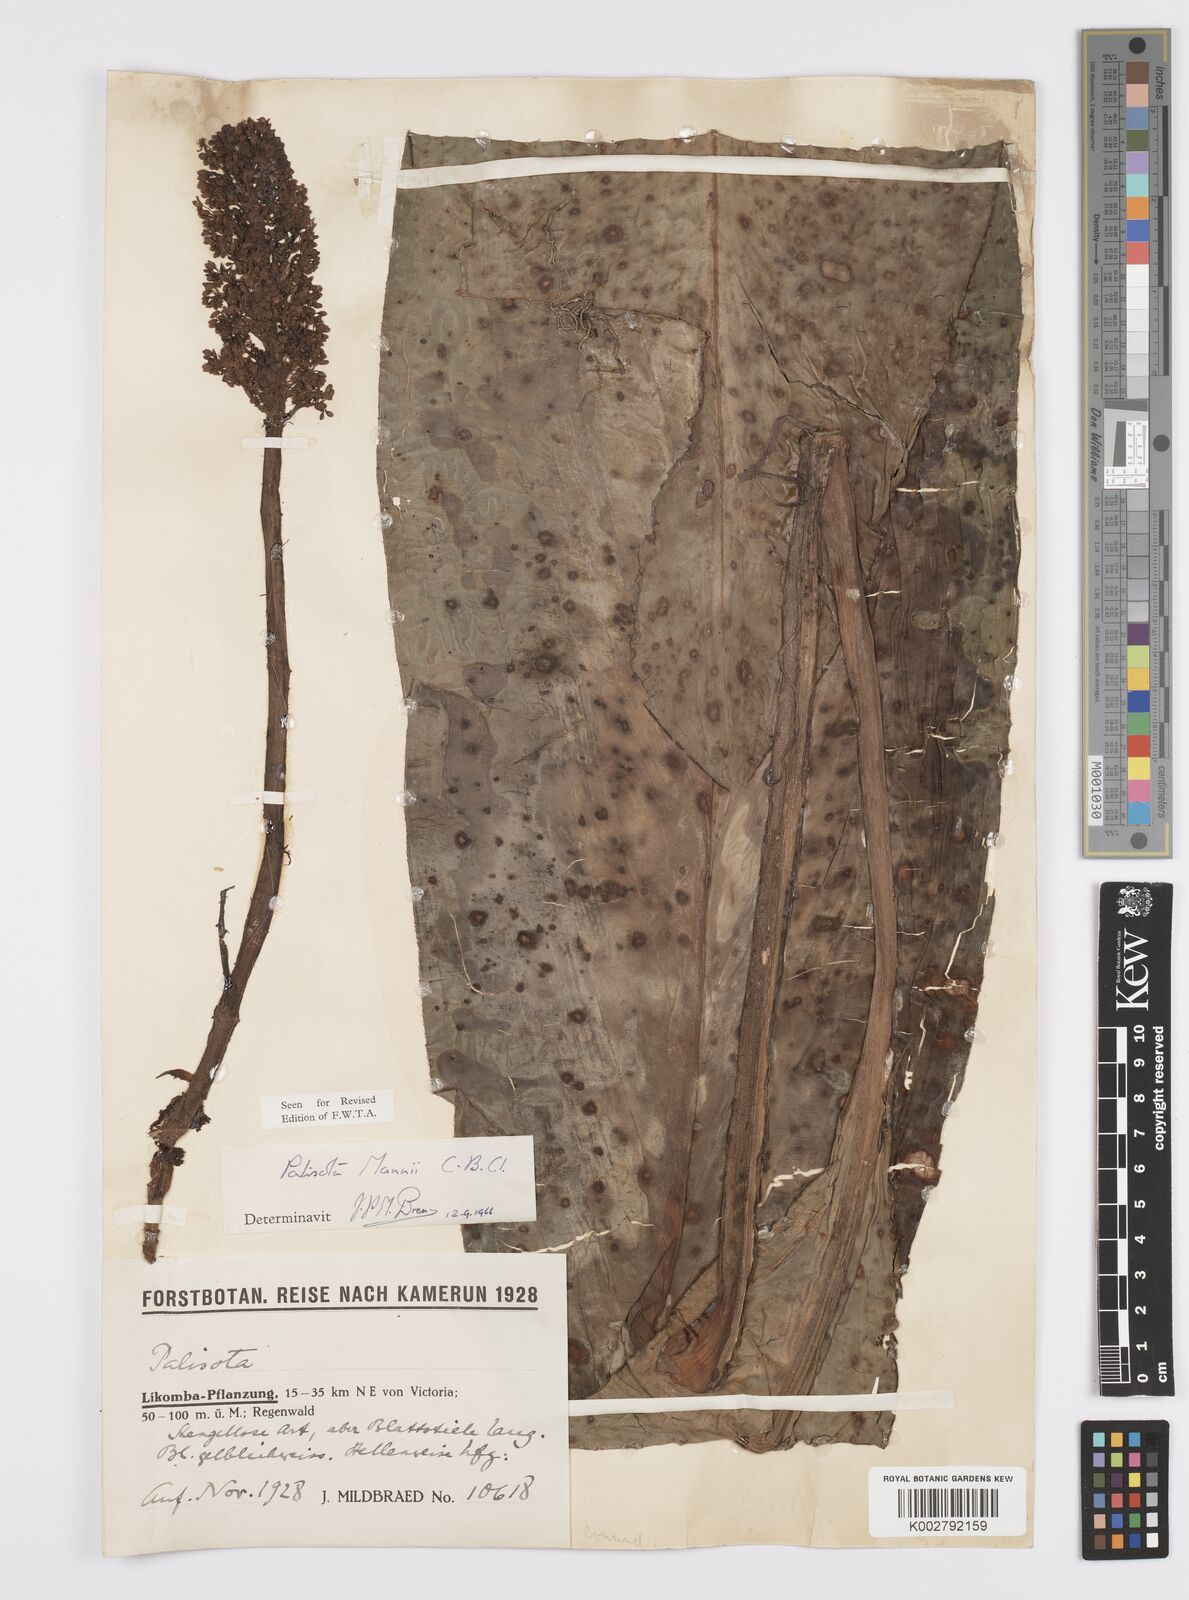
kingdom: Plantae
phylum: Tracheophyta
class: Liliopsida
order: Commelinales
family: Commelinaceae
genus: Palisota
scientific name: Palisota mannii
